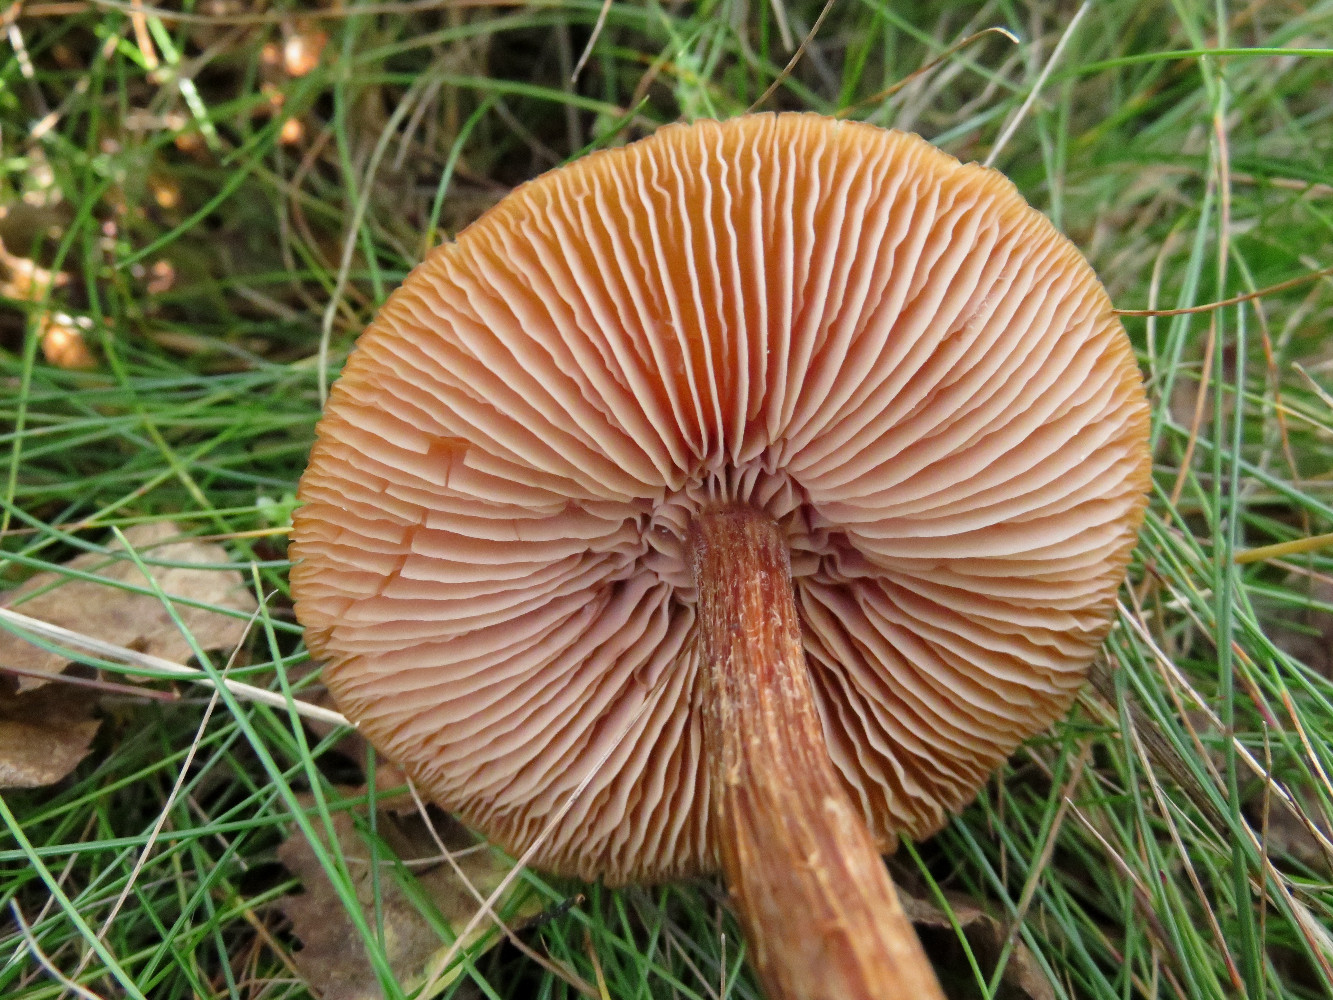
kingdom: Fungi
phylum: Basidiomycota
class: Agaricomycetes
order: Agaricales
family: Hydnangiaceae
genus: Laccaria
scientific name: Laccaria proxima
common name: stor ametysthat
